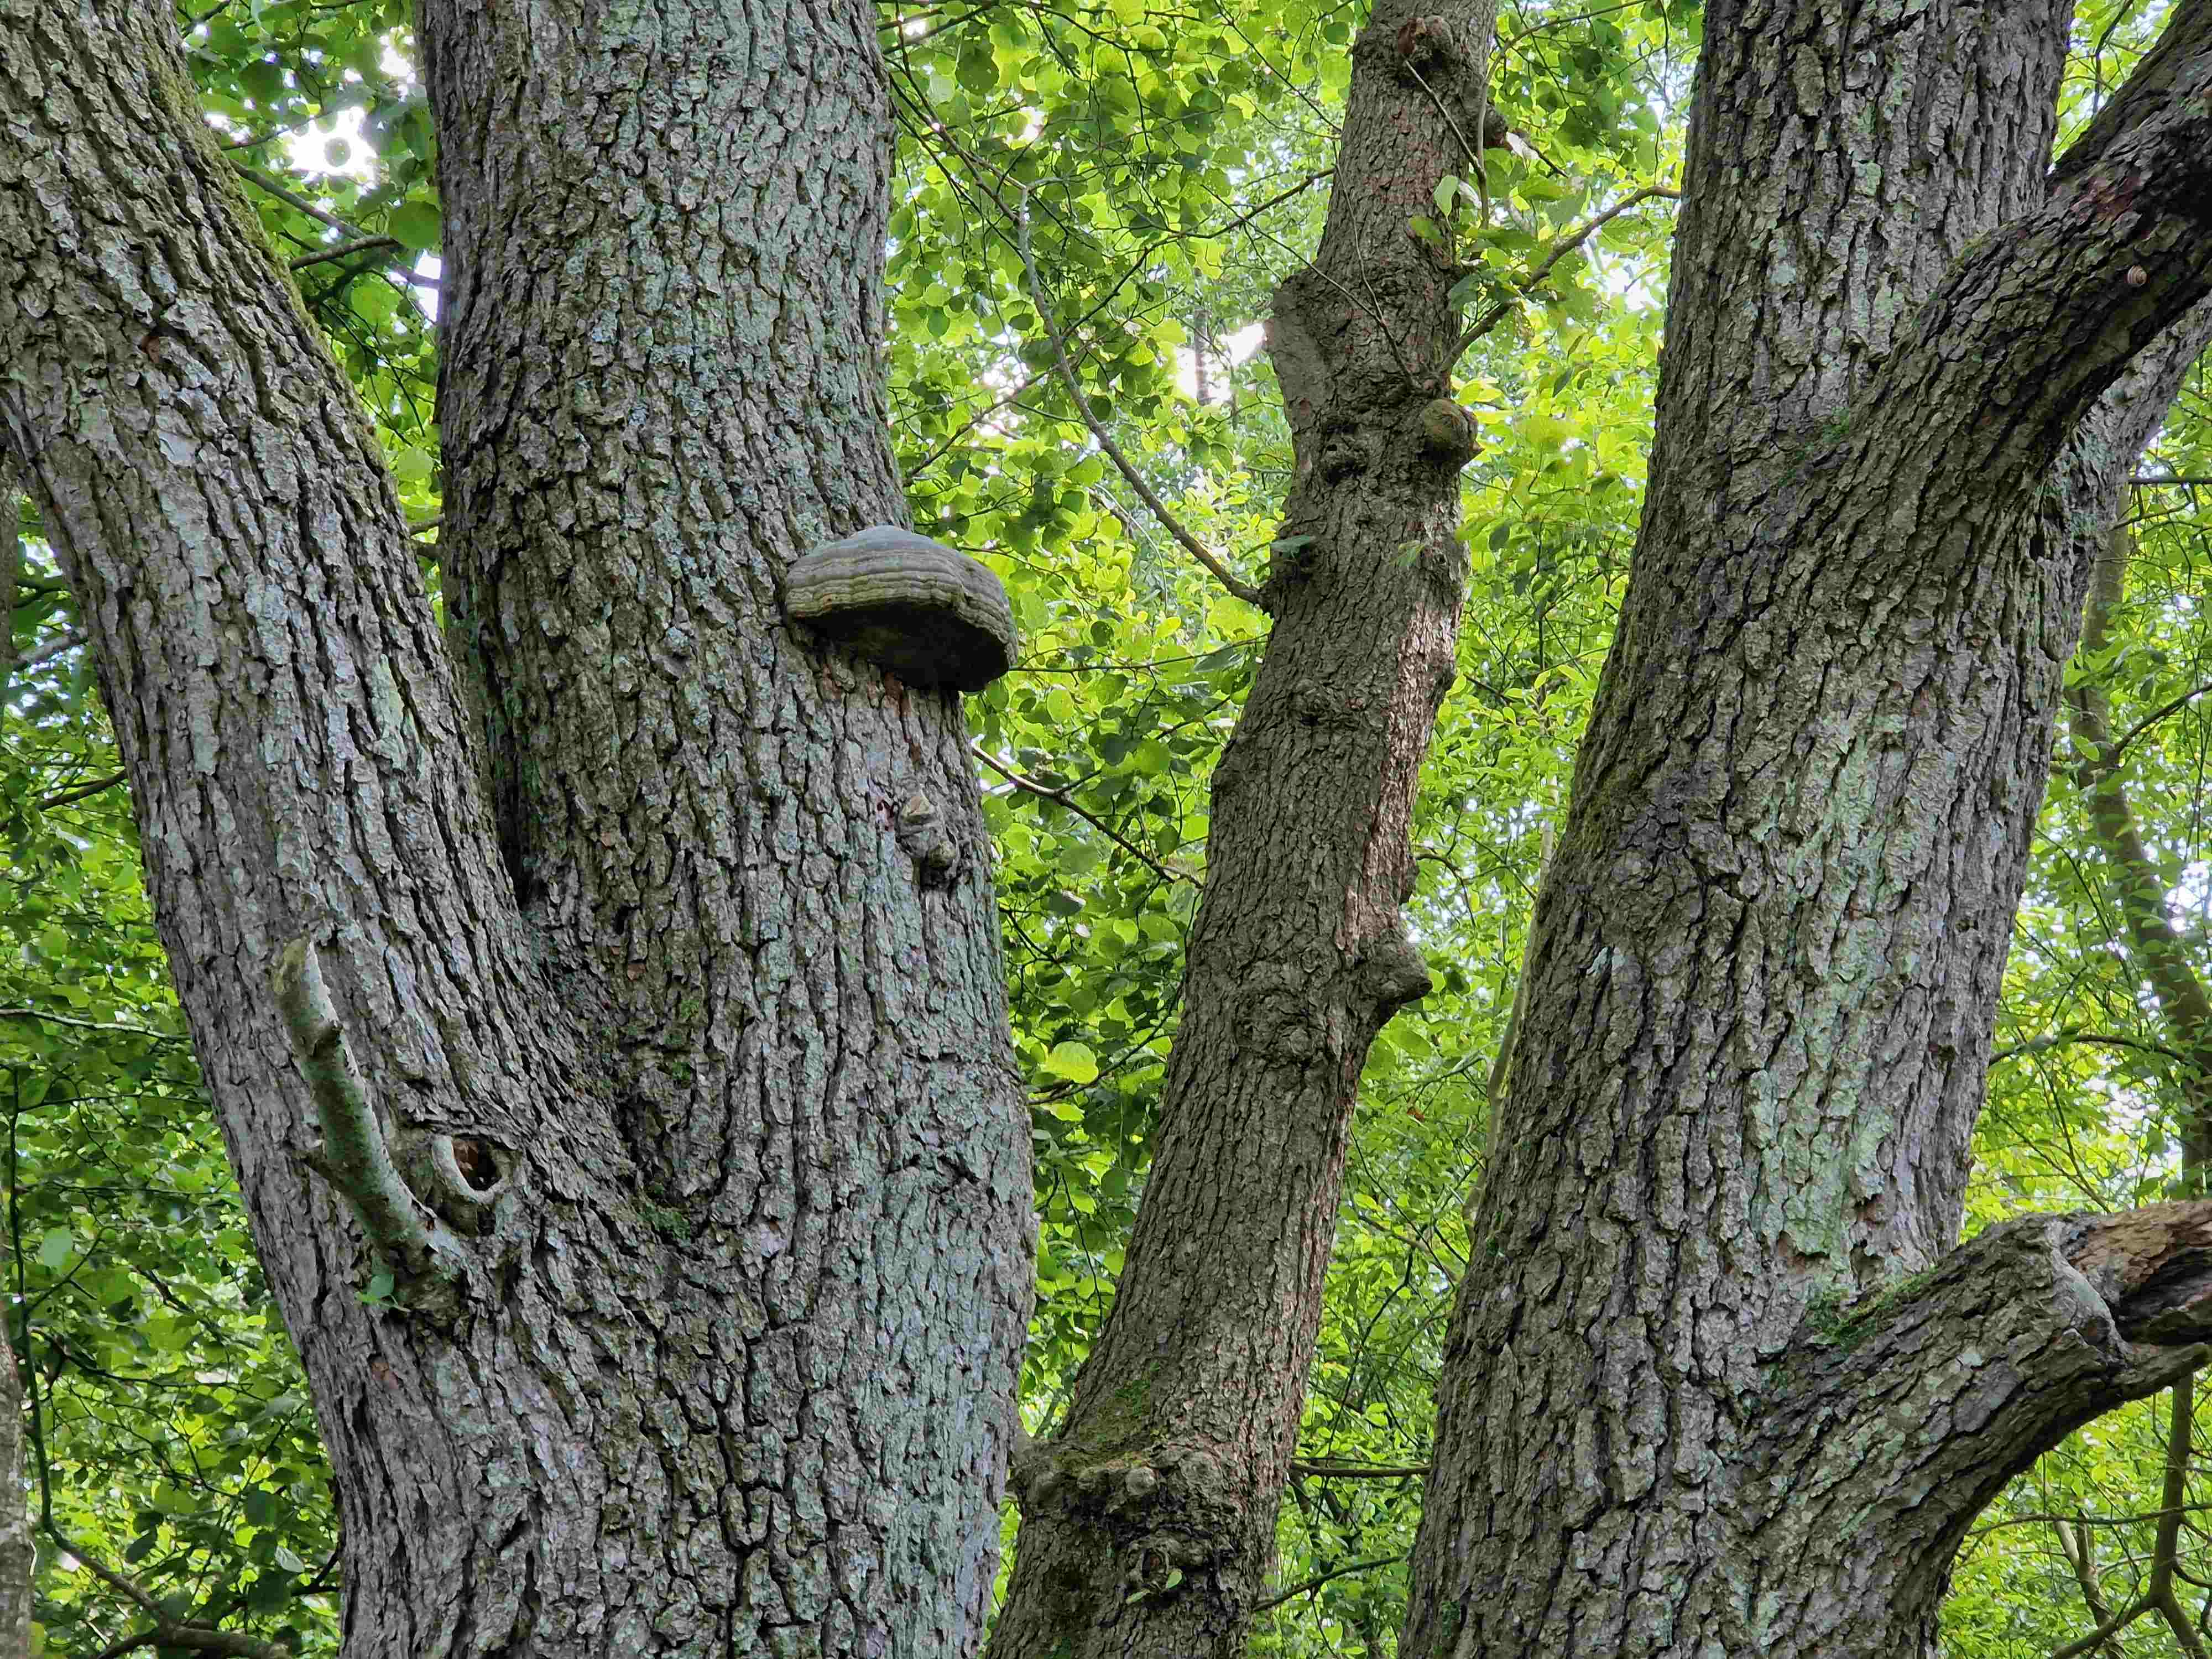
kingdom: Fungi
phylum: Basidiomycota
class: Agaricomycetes
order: Polyporales
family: Polyporaceae
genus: Fomes
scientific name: Fomes fomentarius
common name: tøndersvamp
